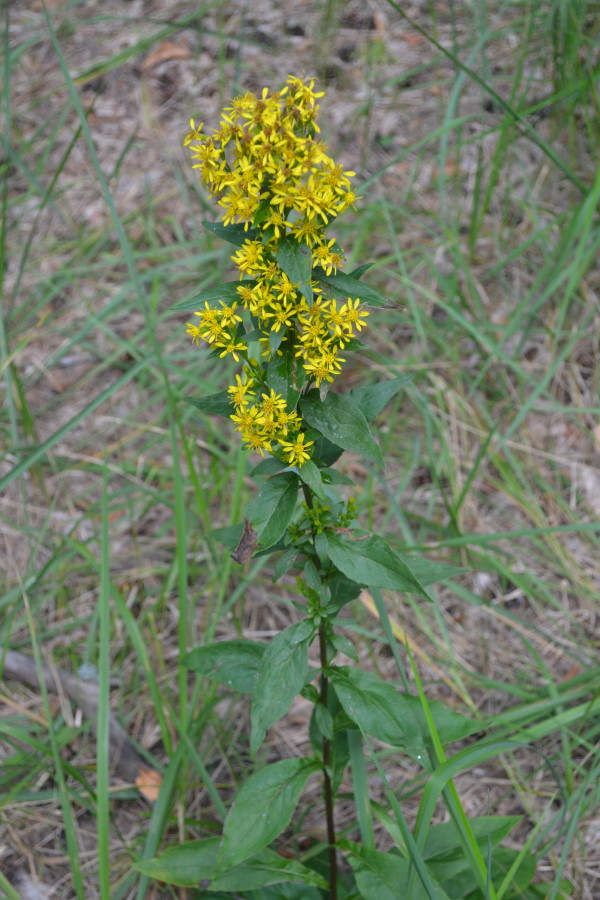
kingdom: Plantae
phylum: Tracheophyta
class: Magnoliopsida
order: Asterales
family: Asteraceae
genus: Solidago
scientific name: Solidago virgaurea
